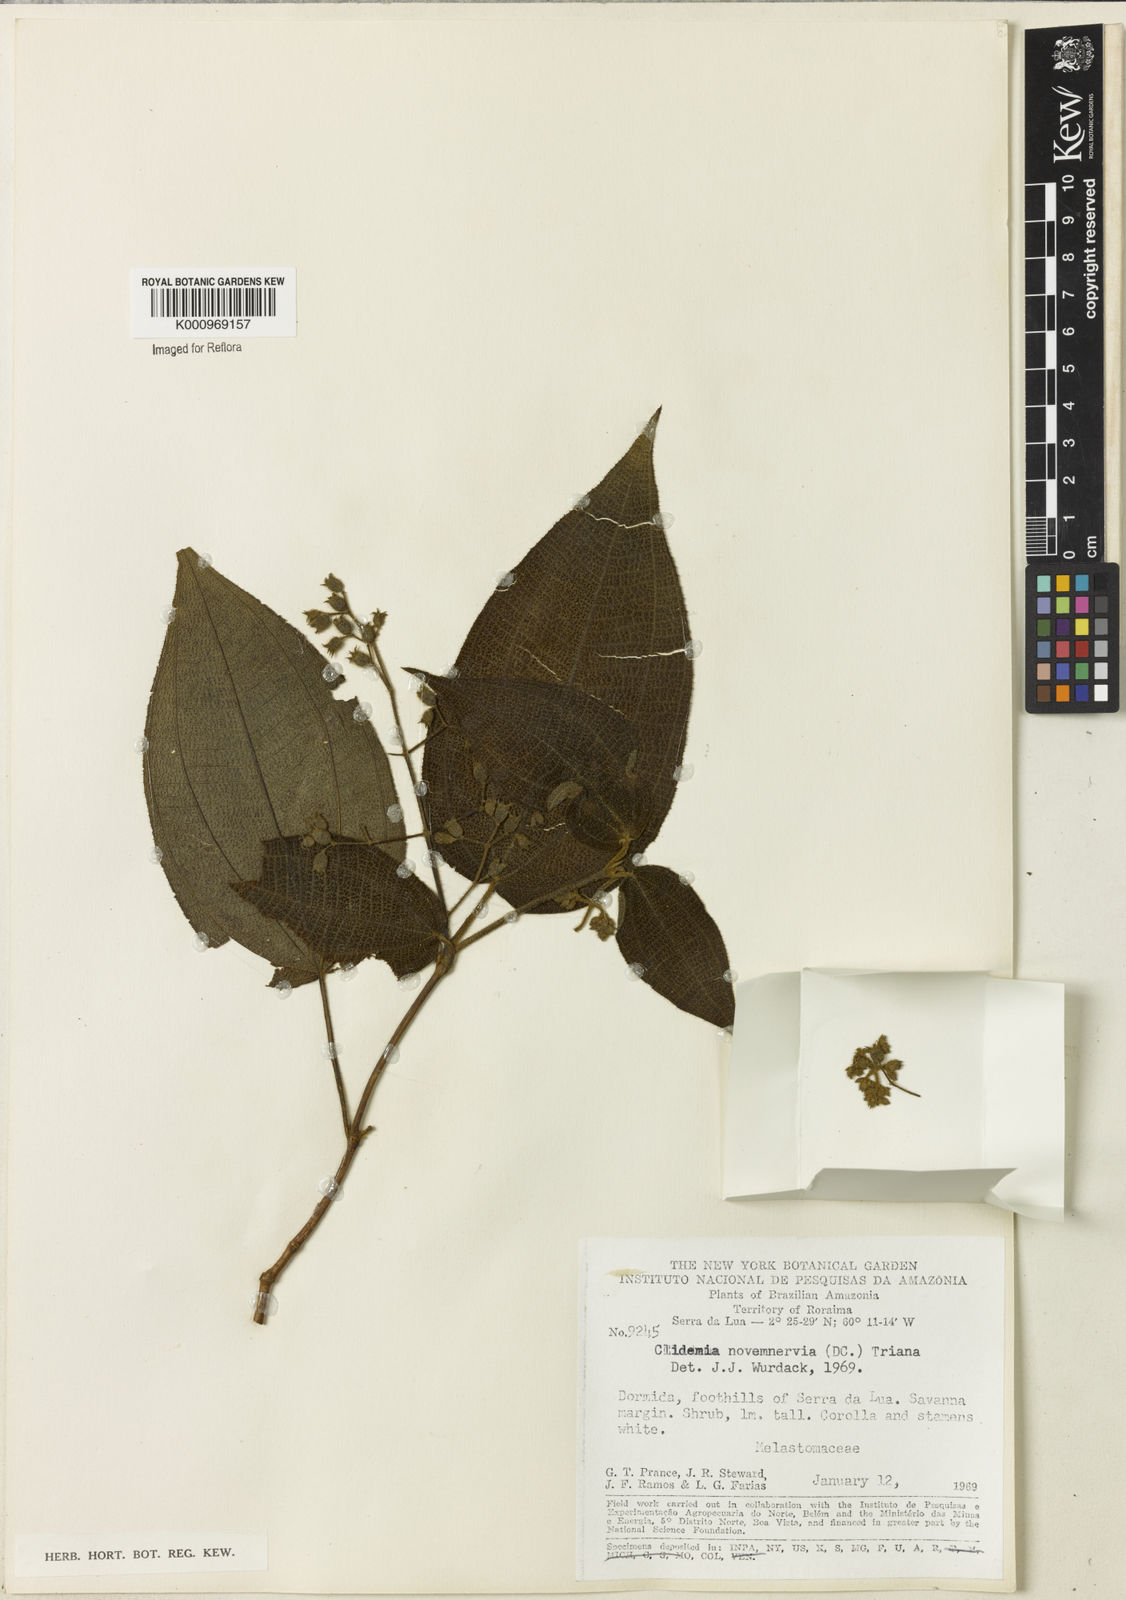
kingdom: Plantae
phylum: Tracheophyta
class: Magnoliopsida
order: Myrtales
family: Melastomataceae
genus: Miconia
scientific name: Miconia bullatifolia
